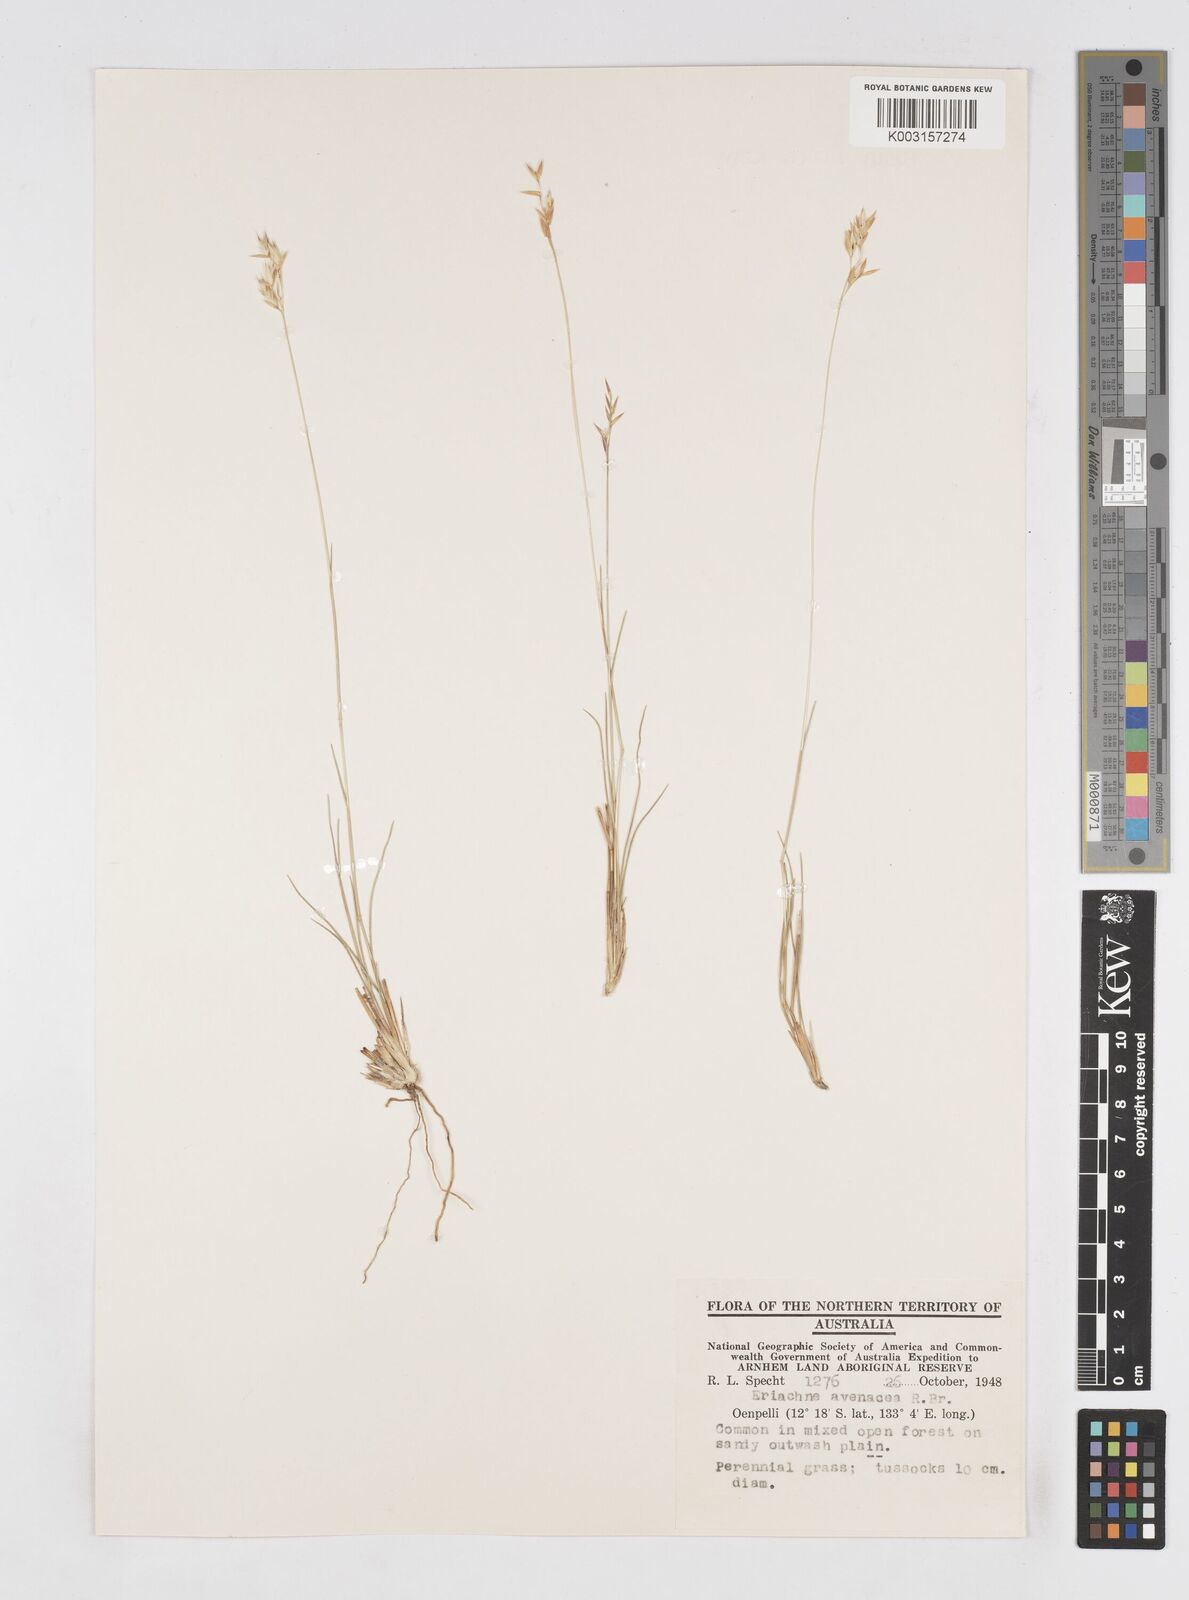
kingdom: Plantae
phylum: Tracheophyta
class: Liliopsida
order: Poales
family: Poaceae
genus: Eriachne
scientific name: Eriachne avenacea
